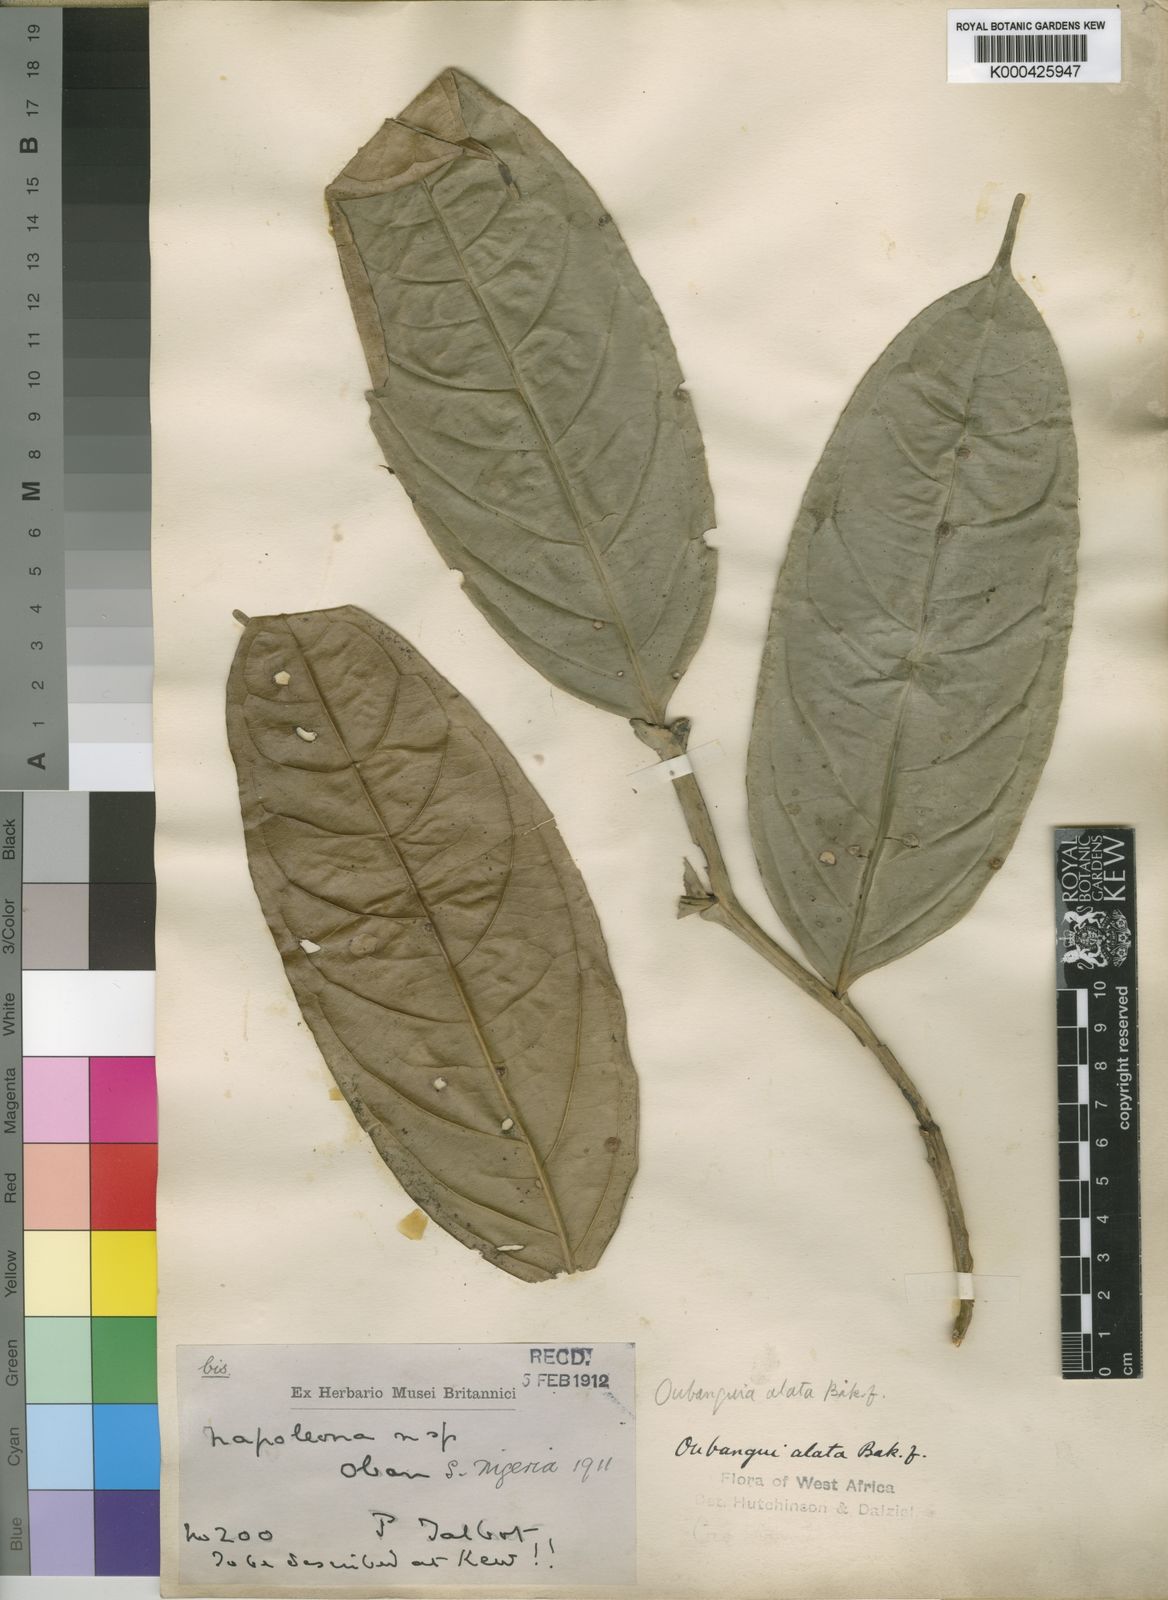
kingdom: Plantae
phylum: Tracheophyta
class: Magnoliopsida
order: Ericales
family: Lecythidaceae
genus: Oubanguia
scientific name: Oubanguia alata
